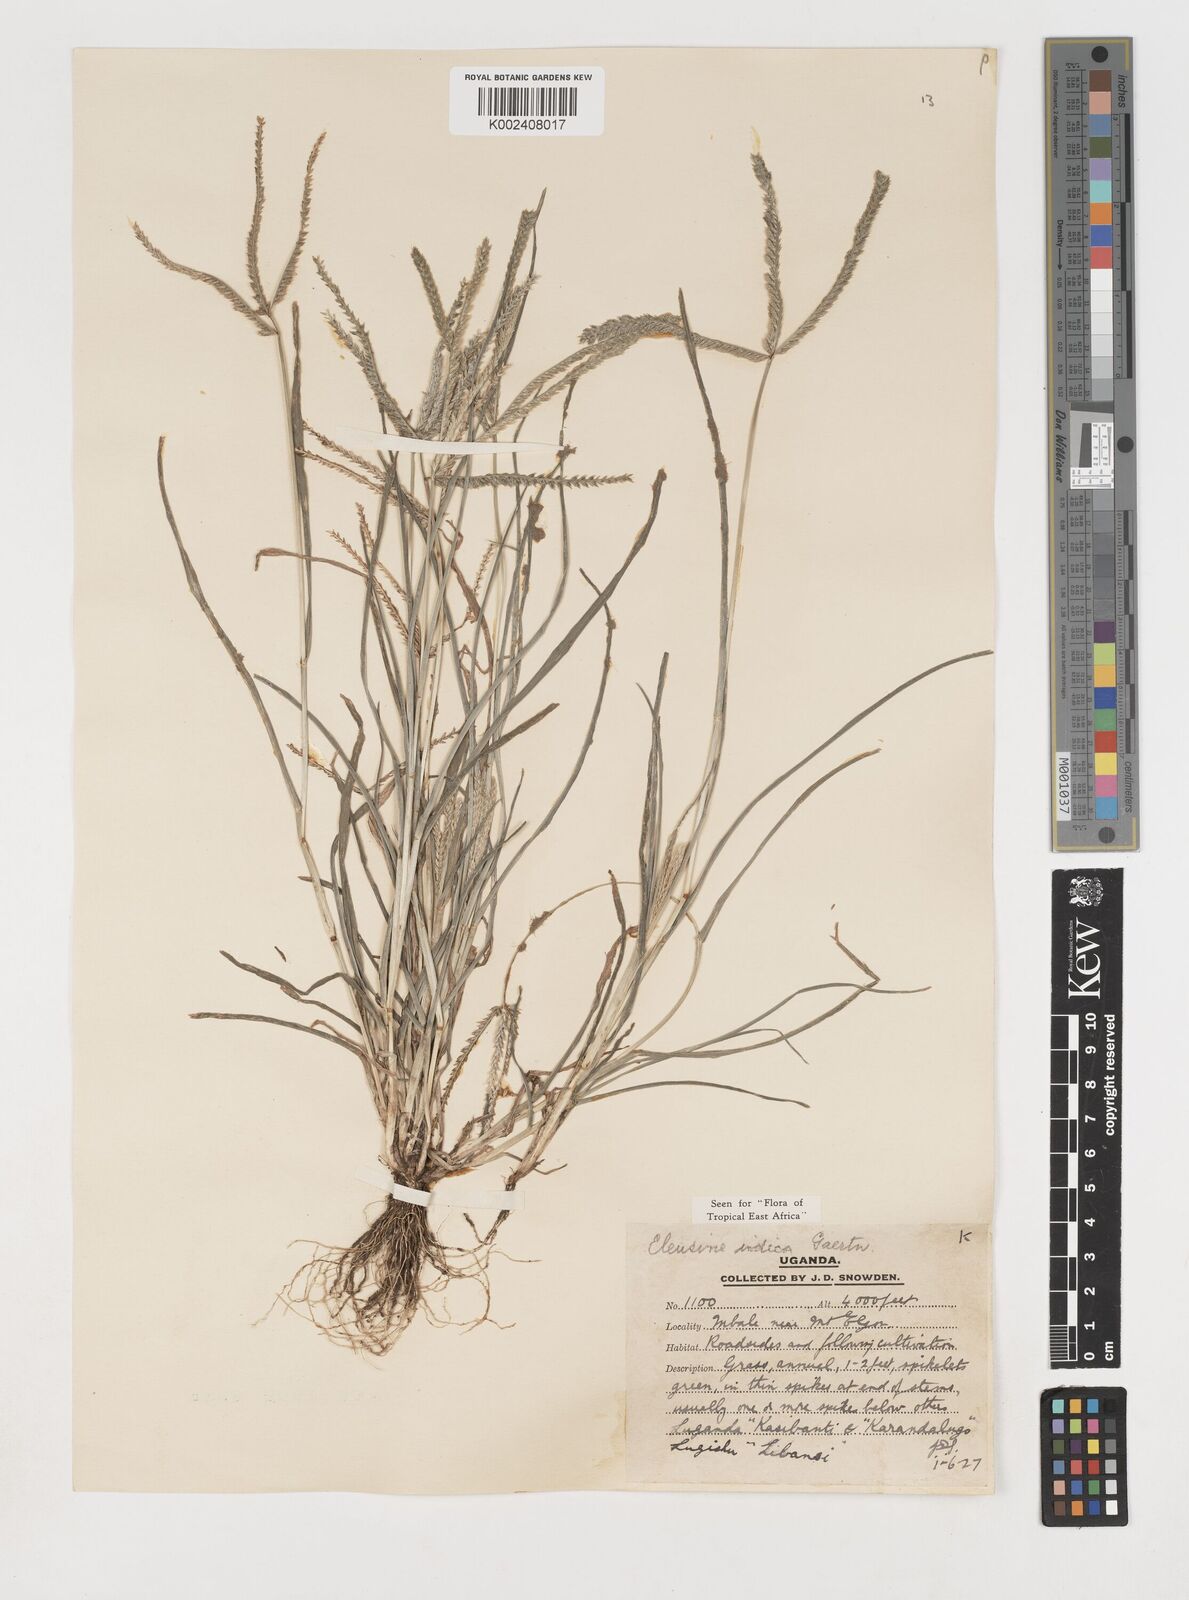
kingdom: Plantae
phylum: Tracheophyta
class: Liliopsida
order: Poales
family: Poaceae
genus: Eleusine
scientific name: Eleusine indica
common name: Yard-grass
